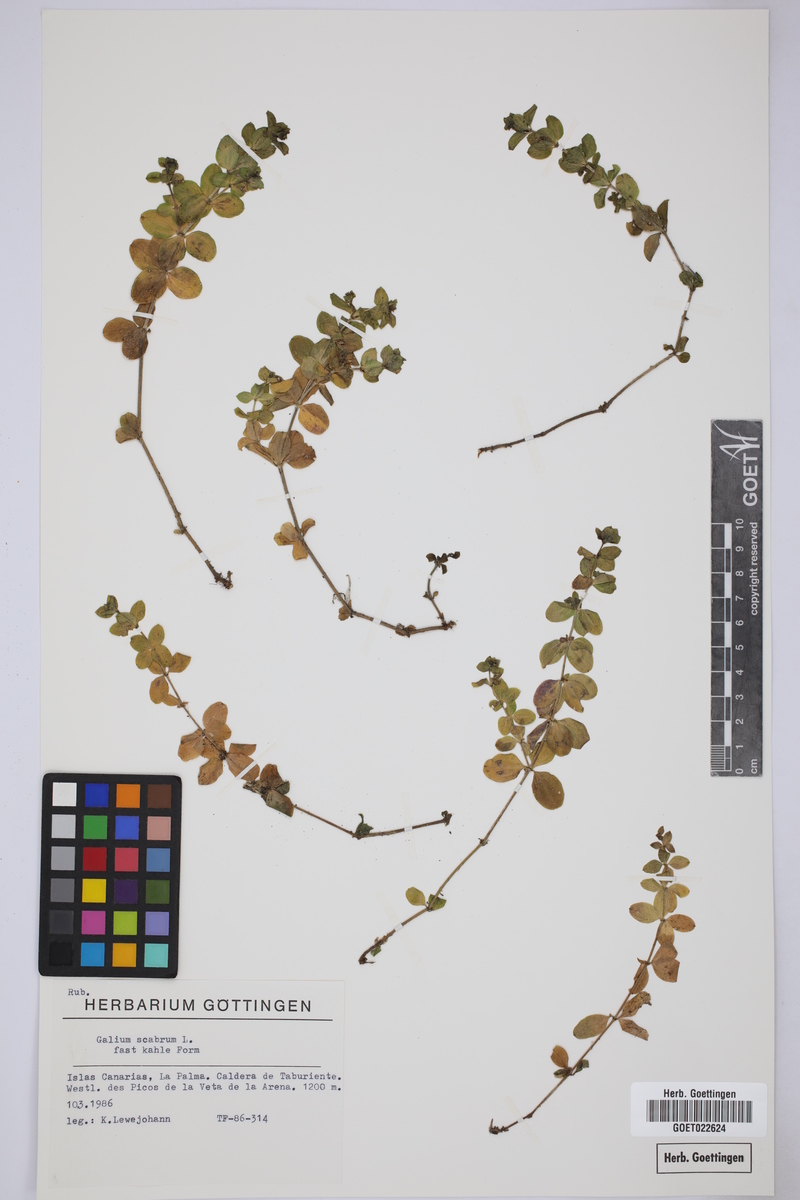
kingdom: Plantae
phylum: Tracheophyta
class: Magnoliopsida
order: Gentianales
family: Rubiaceae
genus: Galium
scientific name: Galium scabrum
